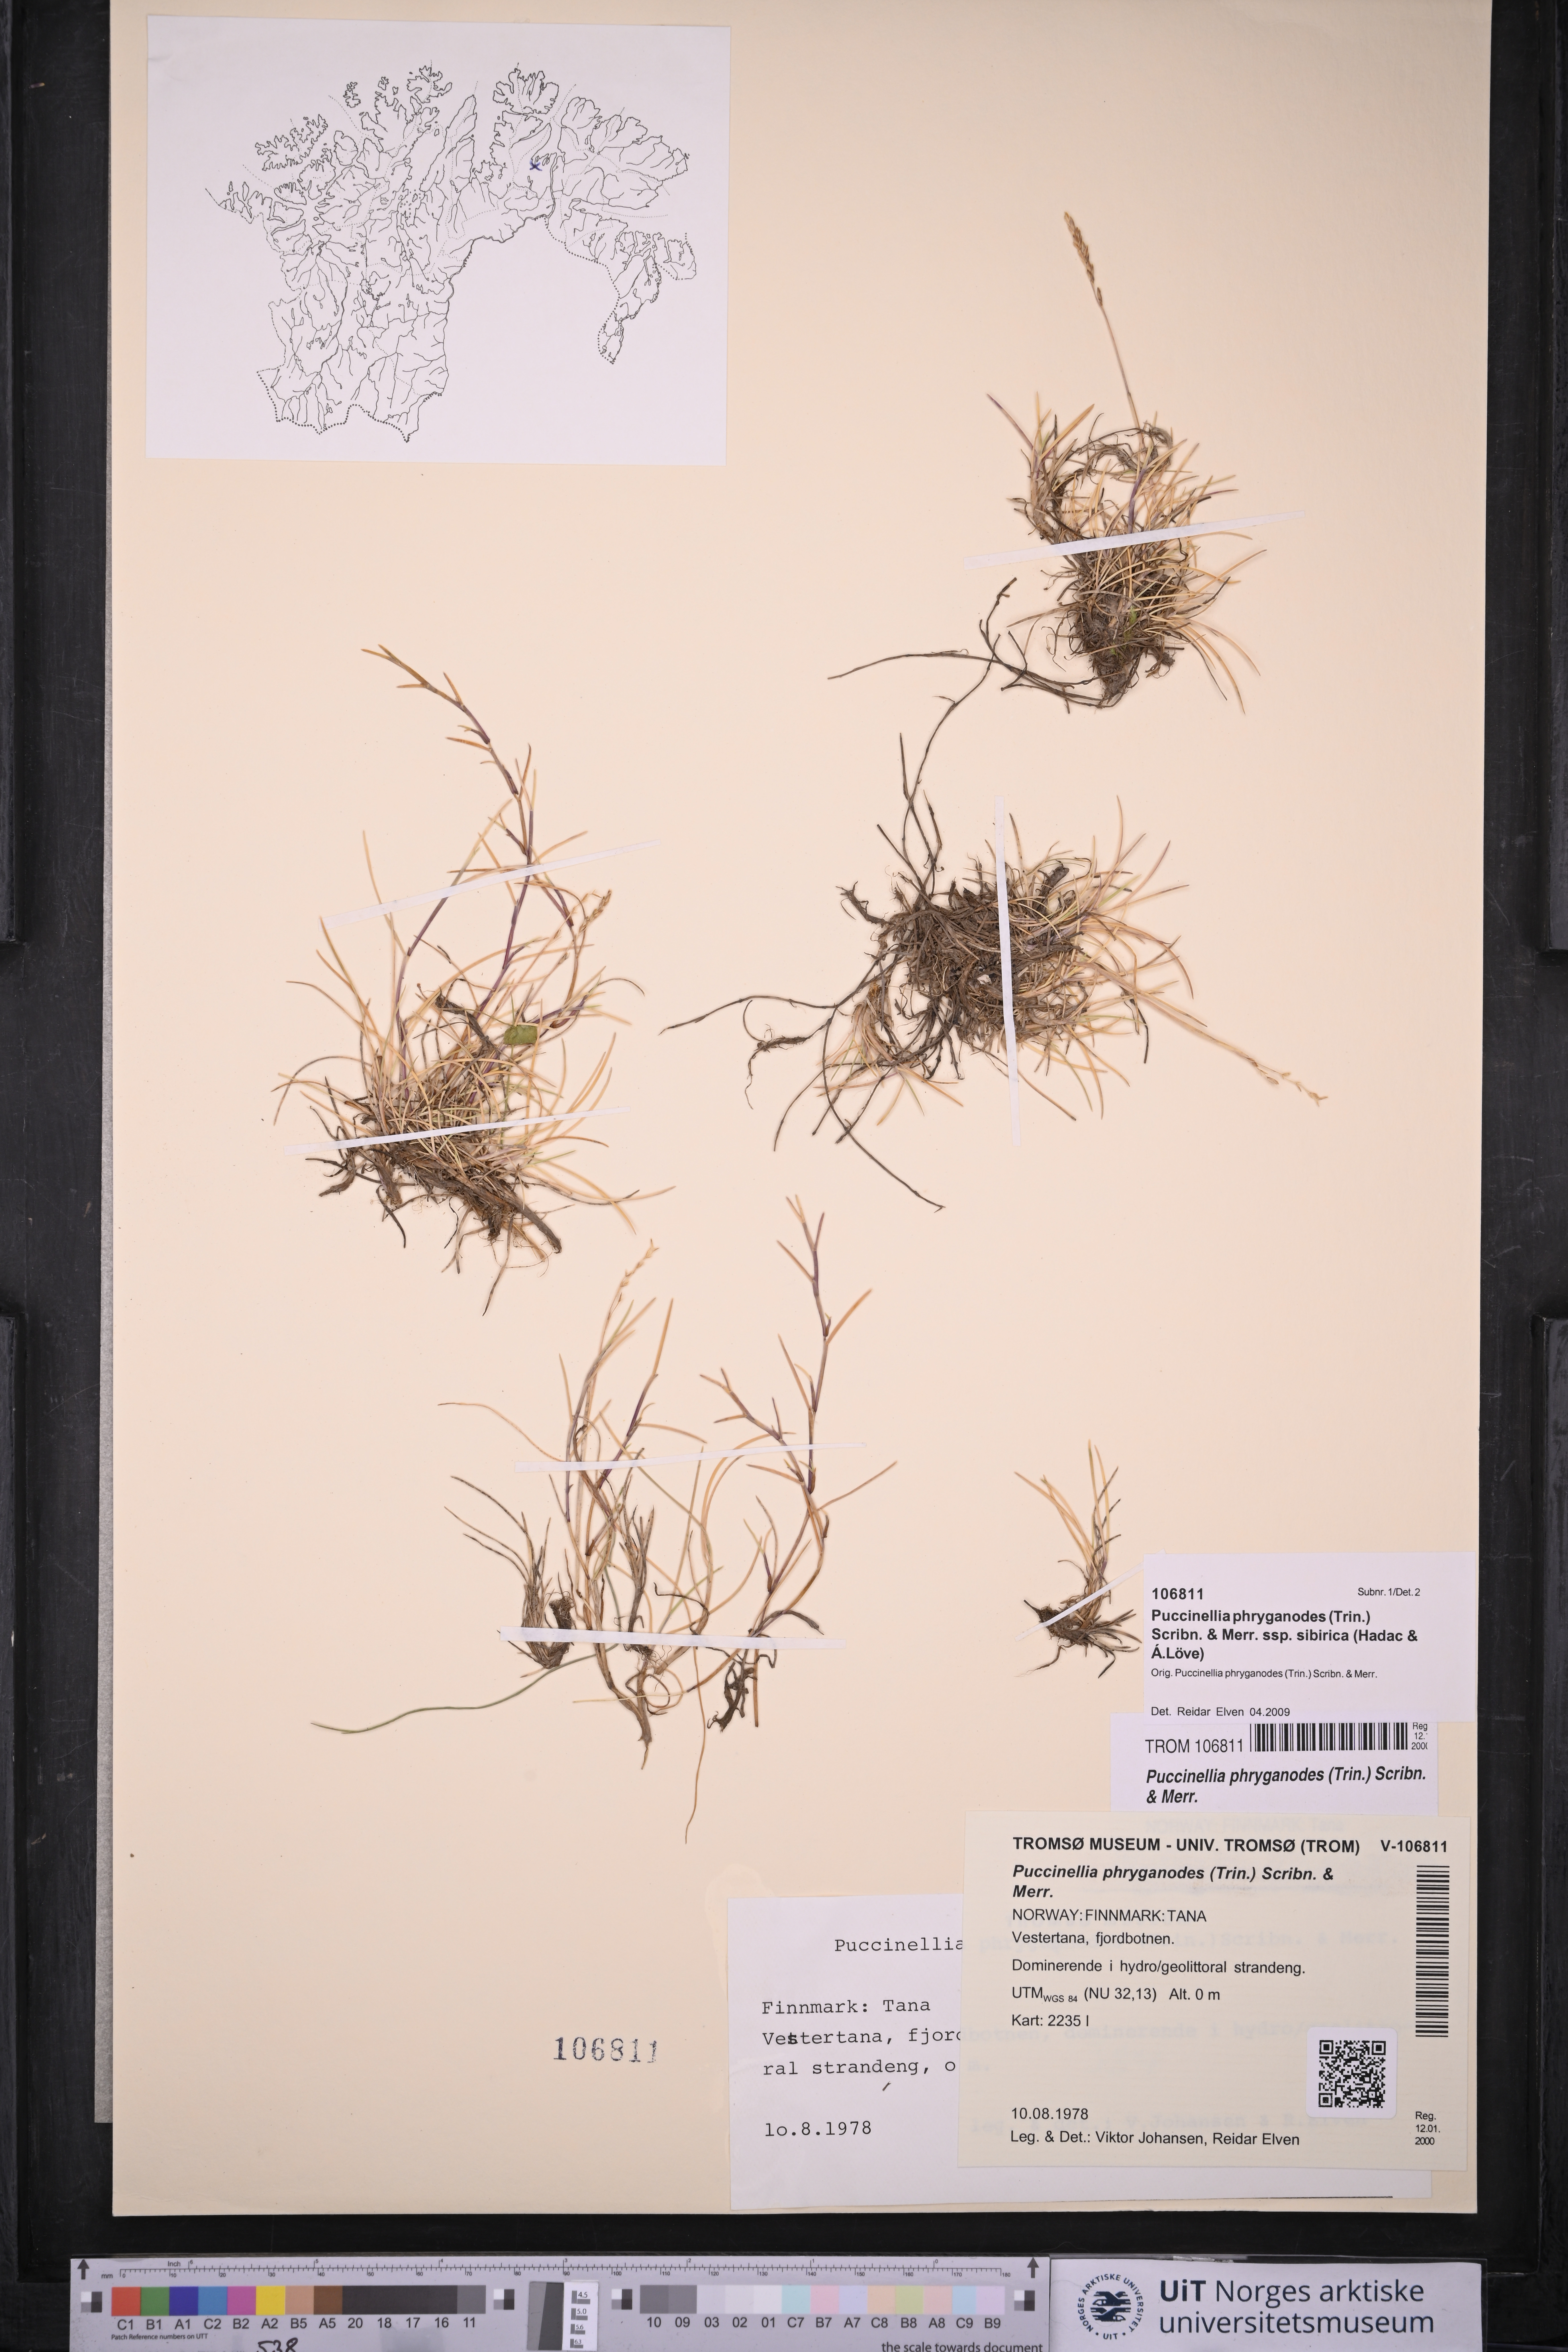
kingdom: Plantae
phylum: Tracheophyta
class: Liliopsida
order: Poales
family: Poaceae
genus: Puccinellia
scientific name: Puccinellia phryganodes
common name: Creeping alkaligrass
